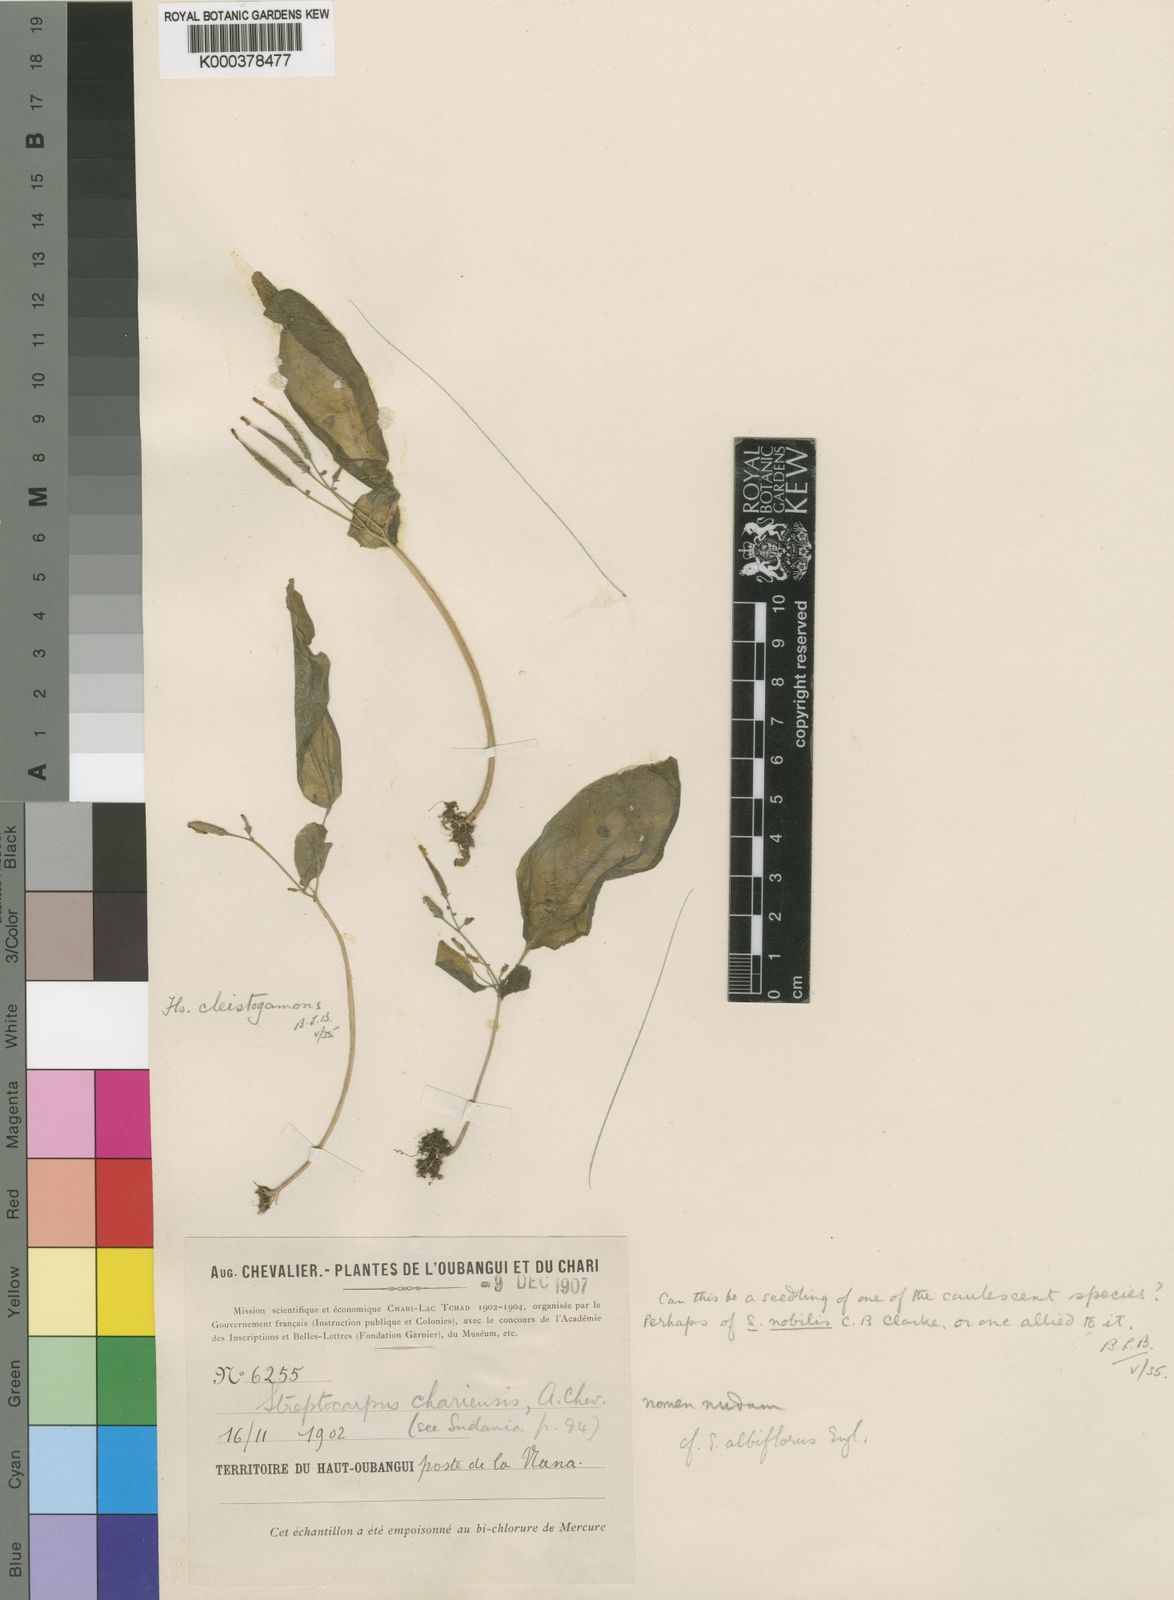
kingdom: Plantae
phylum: Tracheophyta
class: Magnoliopsida
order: Lamiales
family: Gesneriaceae
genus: Streptocarpus
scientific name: Streptocarpus nobilis
